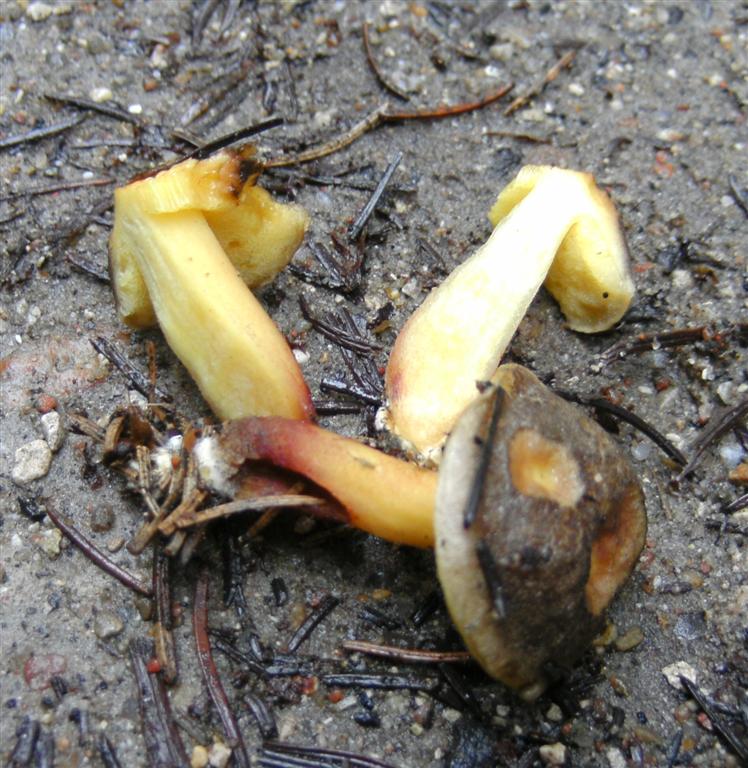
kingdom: Fungi
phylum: Basidiomycota
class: Agaricomycetes
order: Boletales
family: Boletaceae
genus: Xerocomellus
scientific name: Xerocomellus chrysenteron
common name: rødsprukken rørhat
